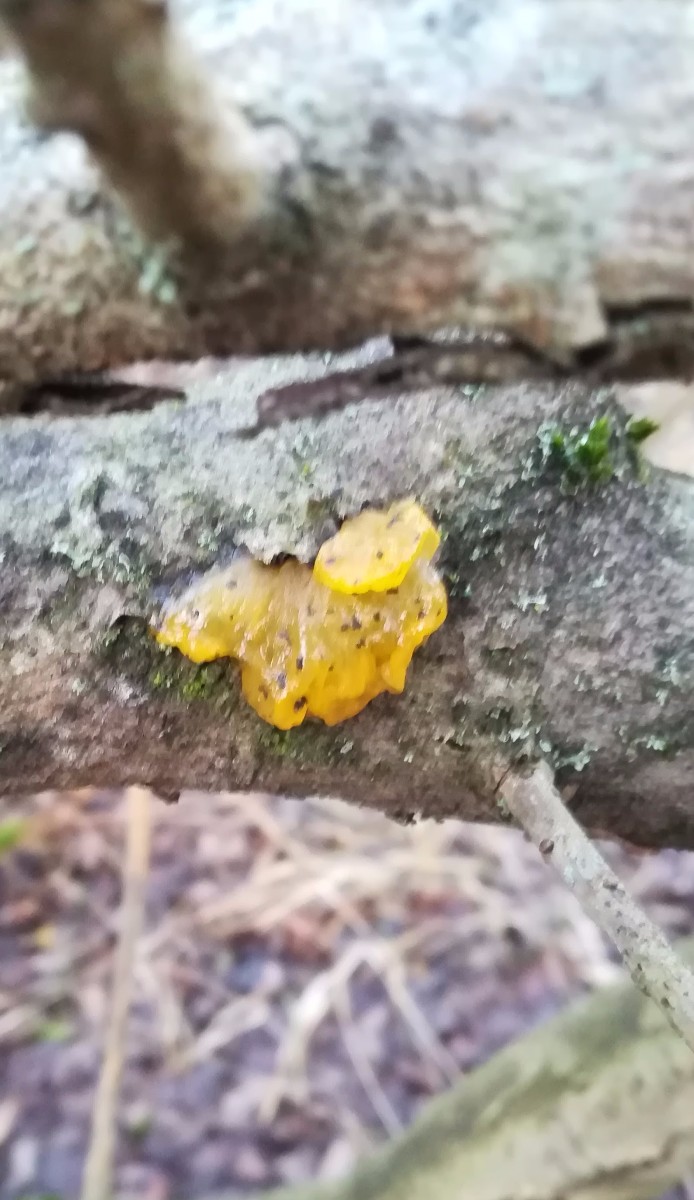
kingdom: Fungi
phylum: Basidiomycota
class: Tremellomycetes
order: Tremellales
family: Tremellaceae
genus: Tremella
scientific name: Tremella mesenterica
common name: gul bævresvamp
